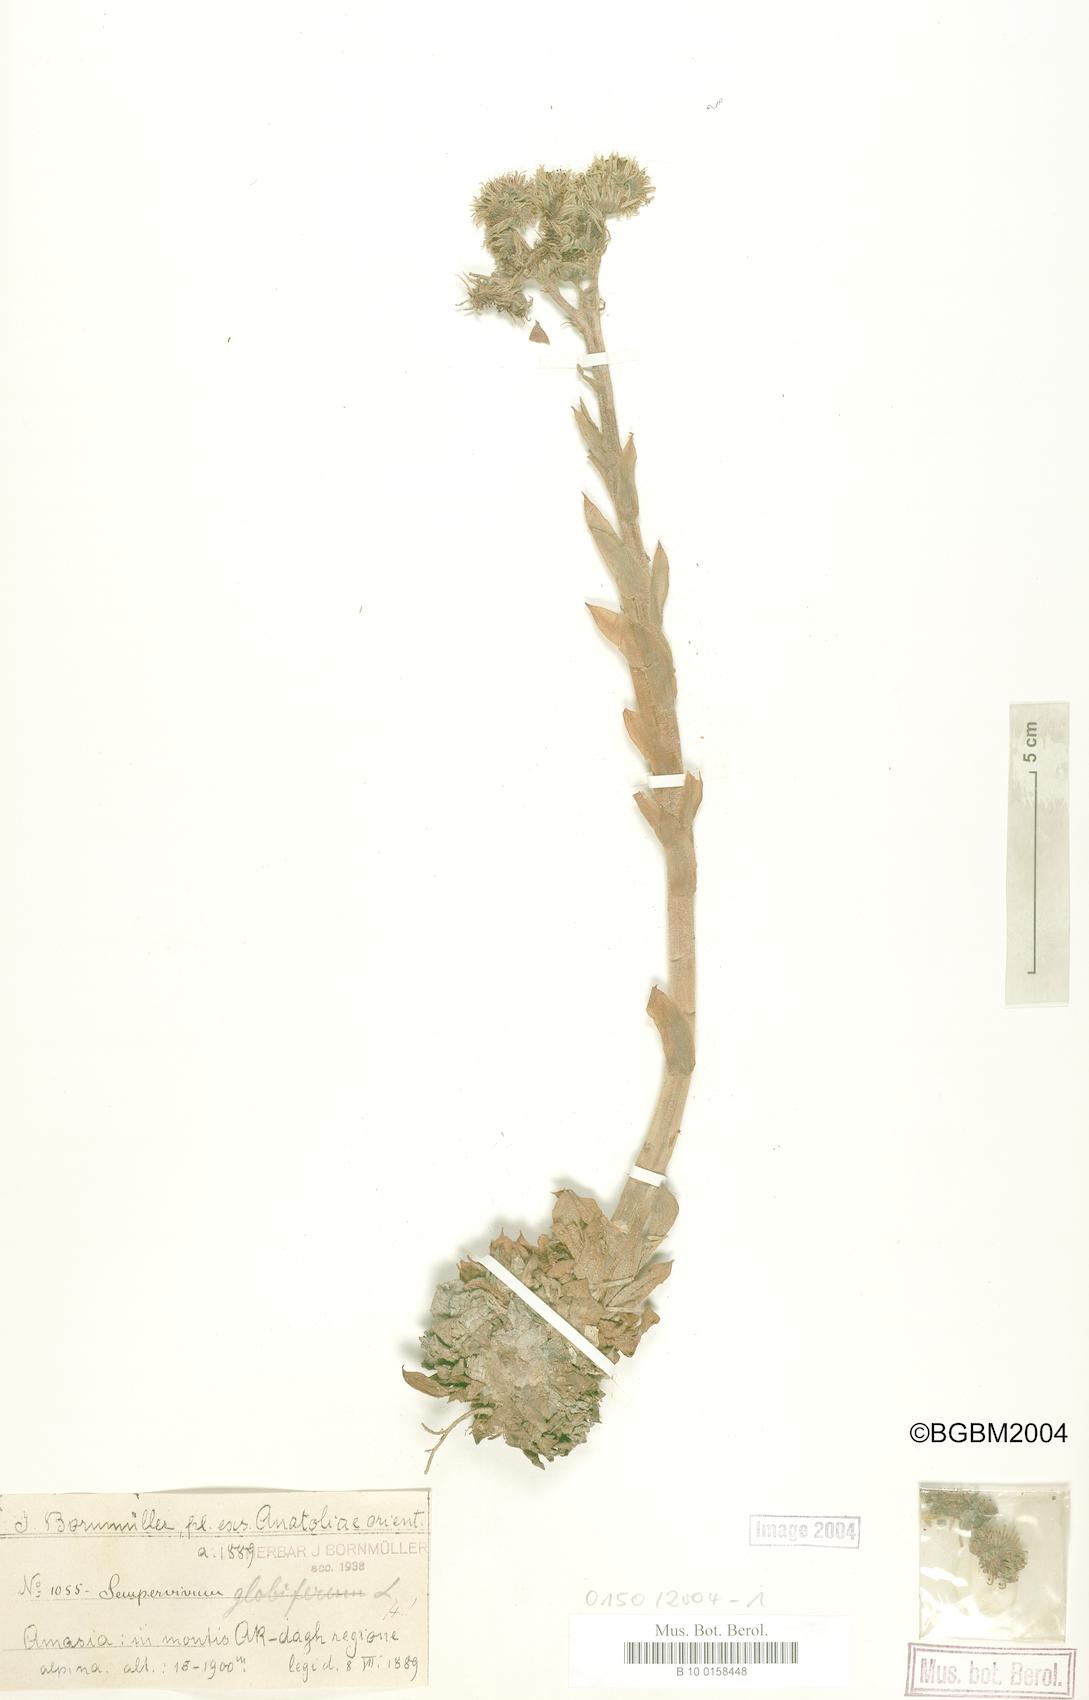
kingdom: Plantae
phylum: Tracheophyta
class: Magnoliopsida
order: Saxifragales
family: Crassulaceae
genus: Sempervivum
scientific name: Sempervivum globiferum
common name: Rolling hen-and-chicks
